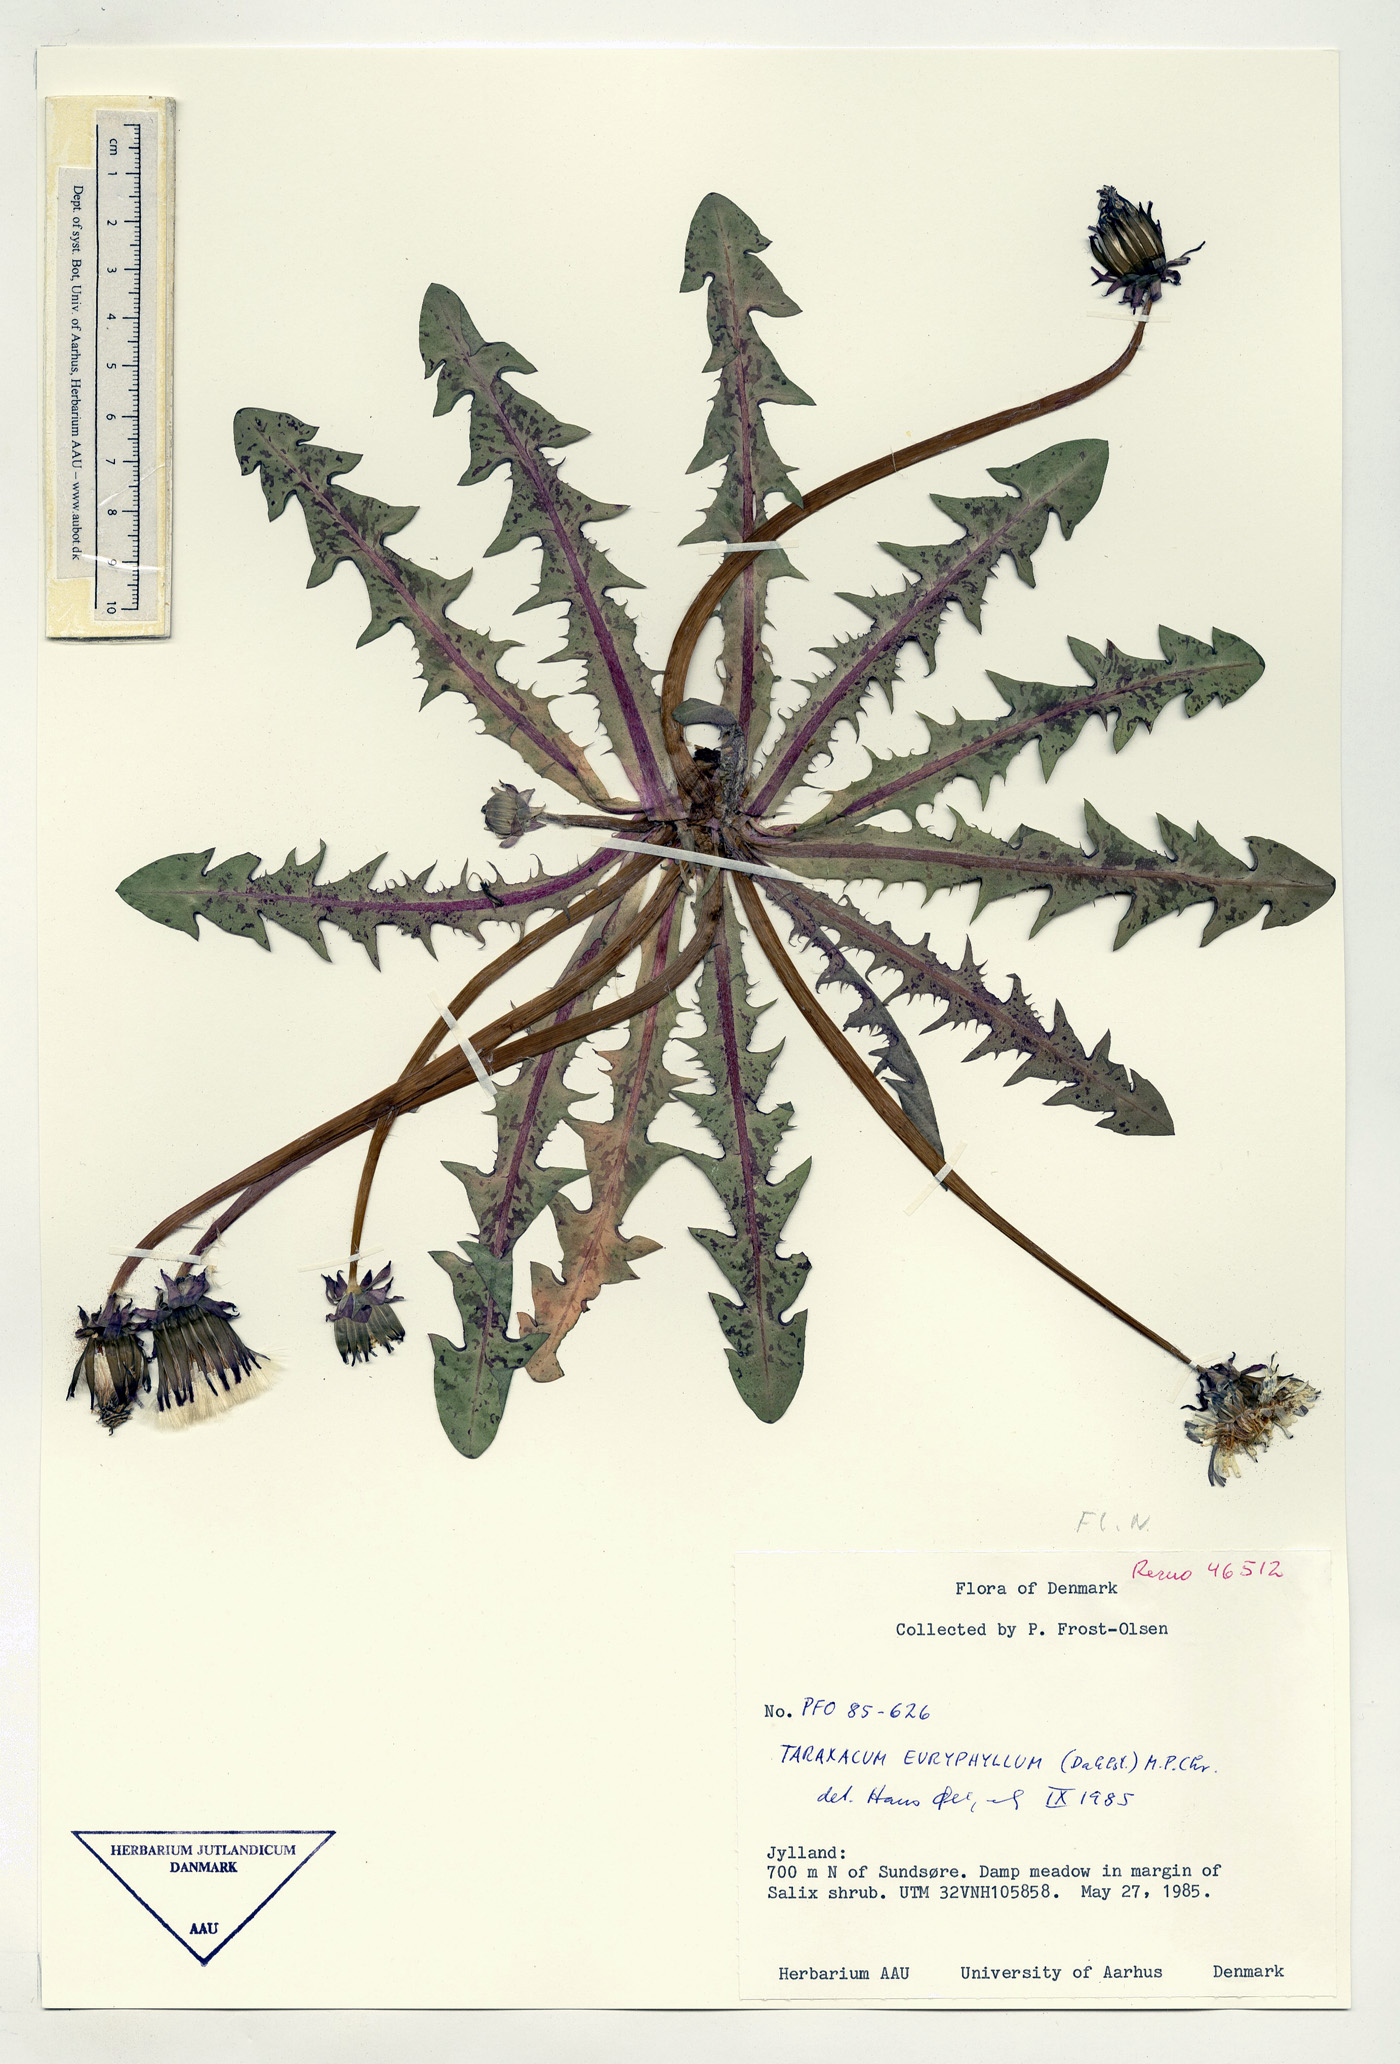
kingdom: Plantae
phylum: Tracheophyta
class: Magnoliopsida
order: Asterales
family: Asteraceae
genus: Taraxacum
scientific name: Taraxacum euryphyllum
